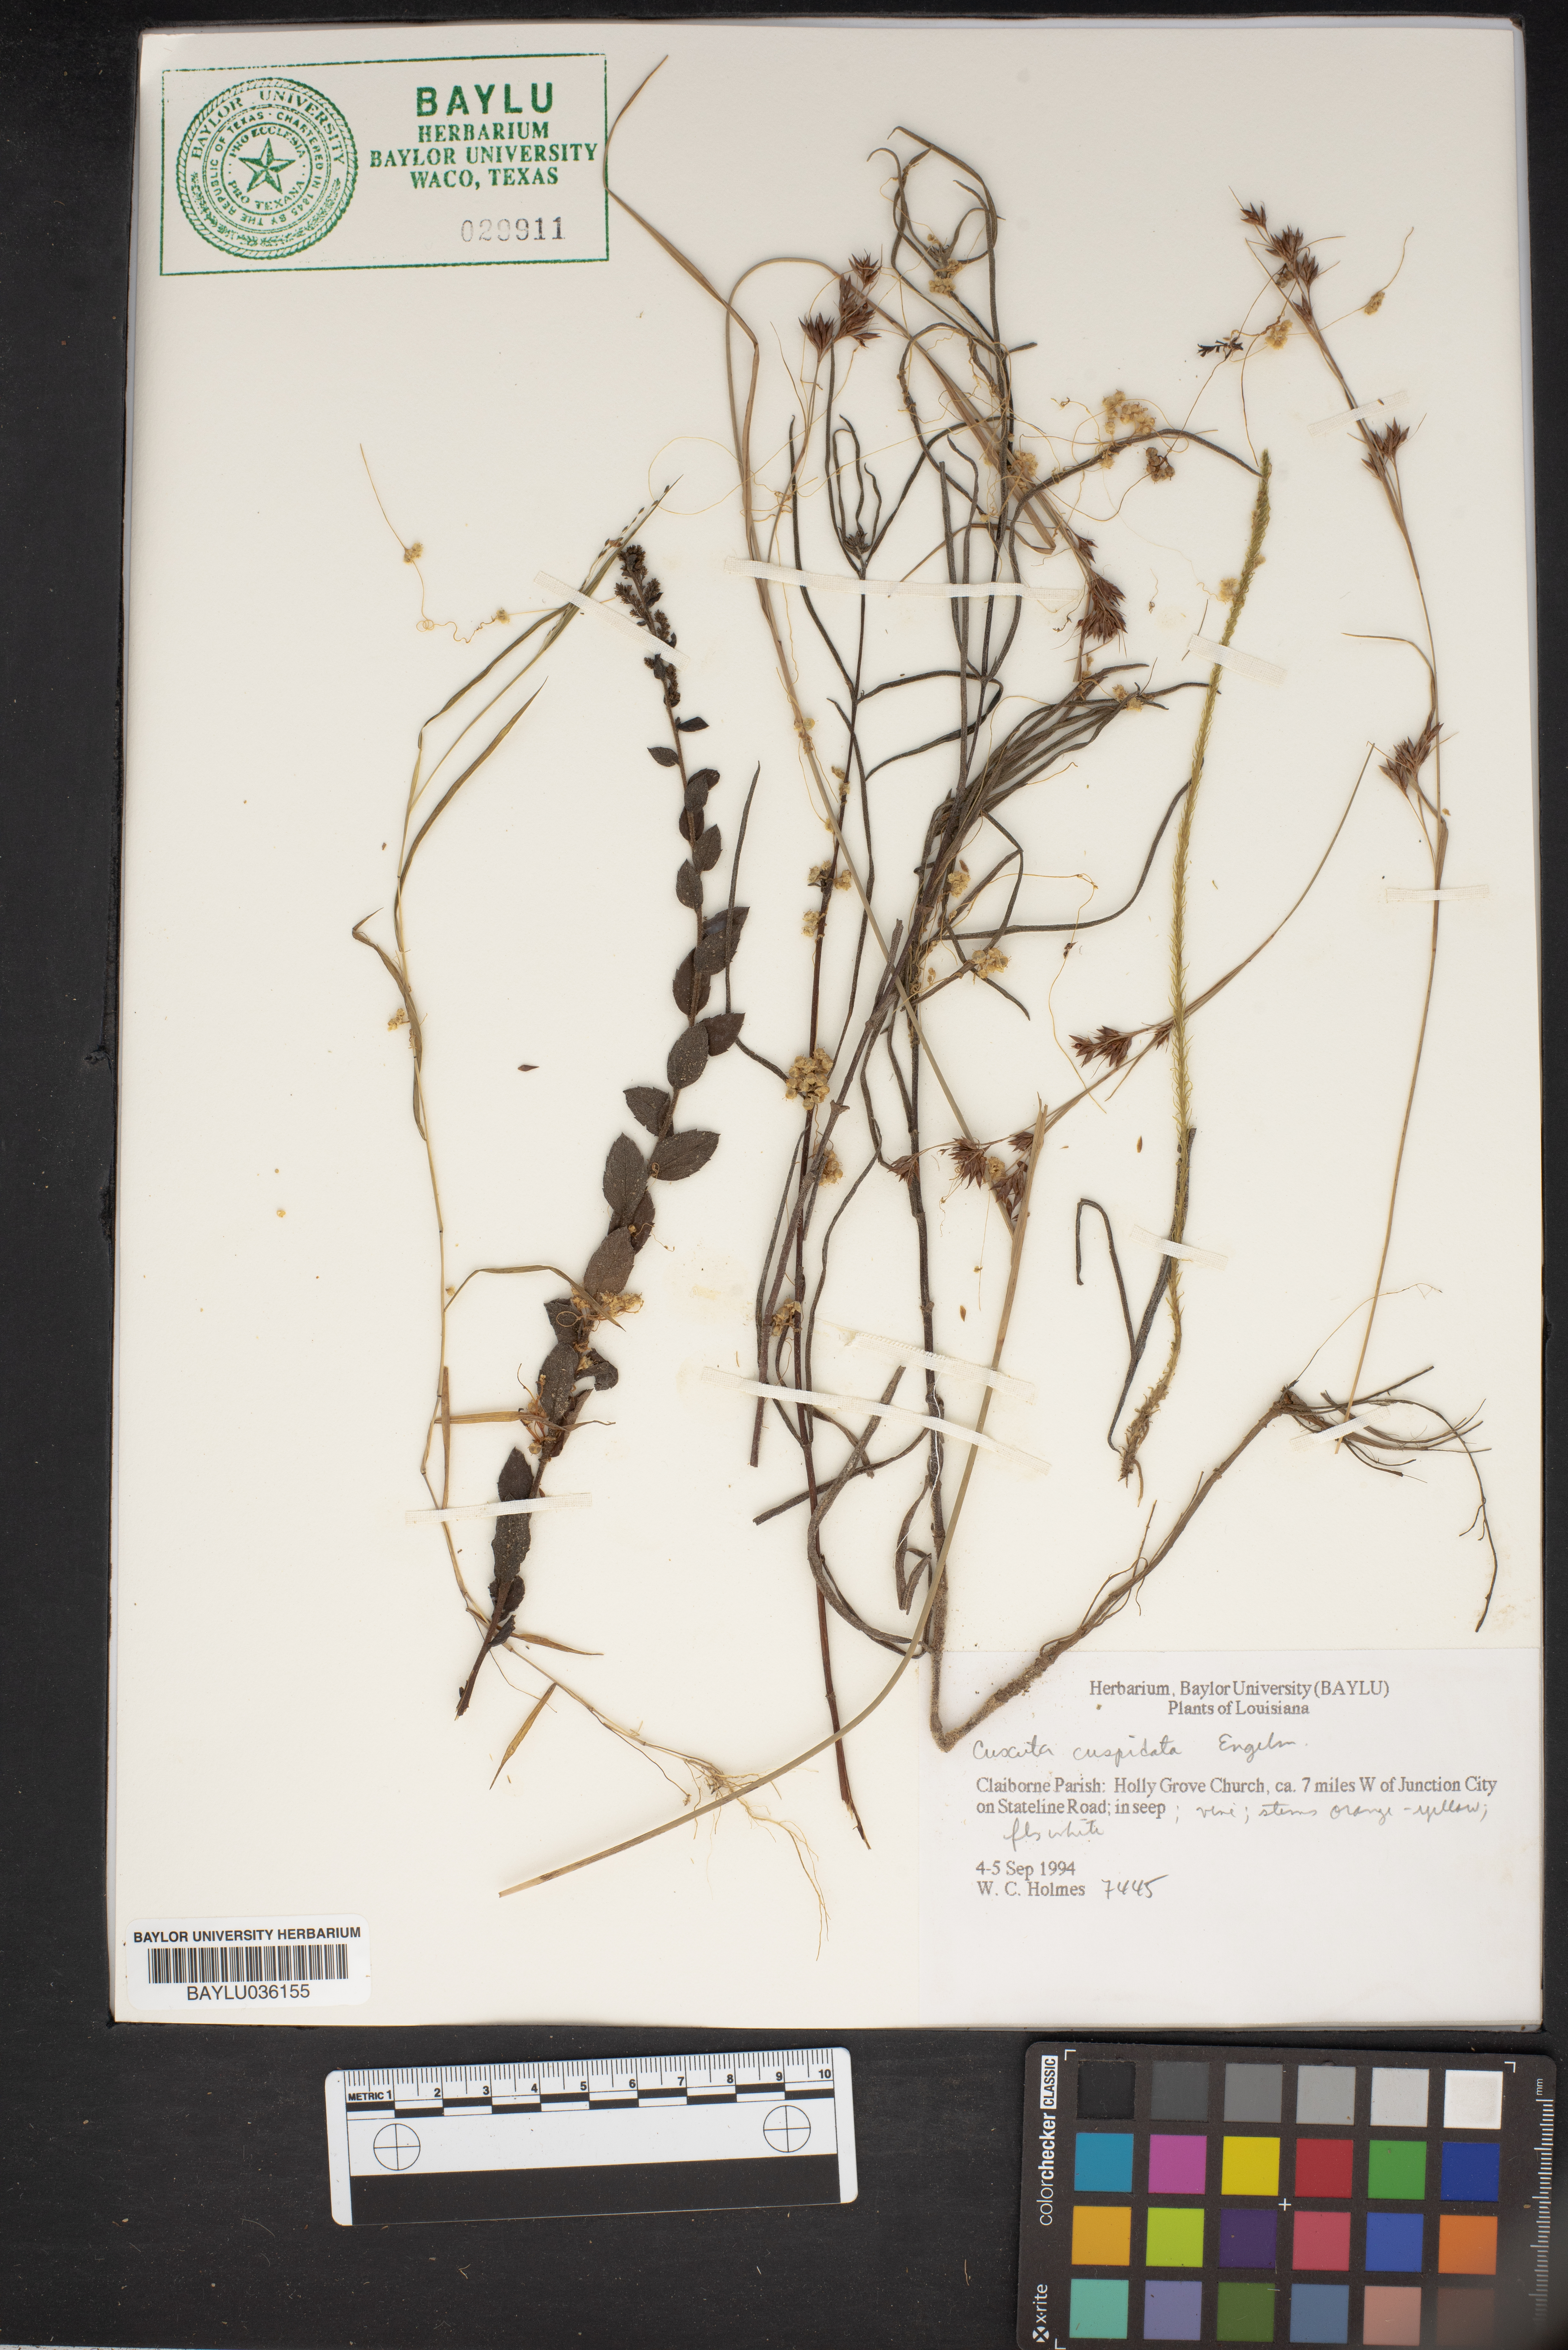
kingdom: Plantae
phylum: Tracheophyta
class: Magnoliopsida
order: Solanales
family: Convolvulaceae
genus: Cuscuta
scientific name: Cuscuta cuspidata
